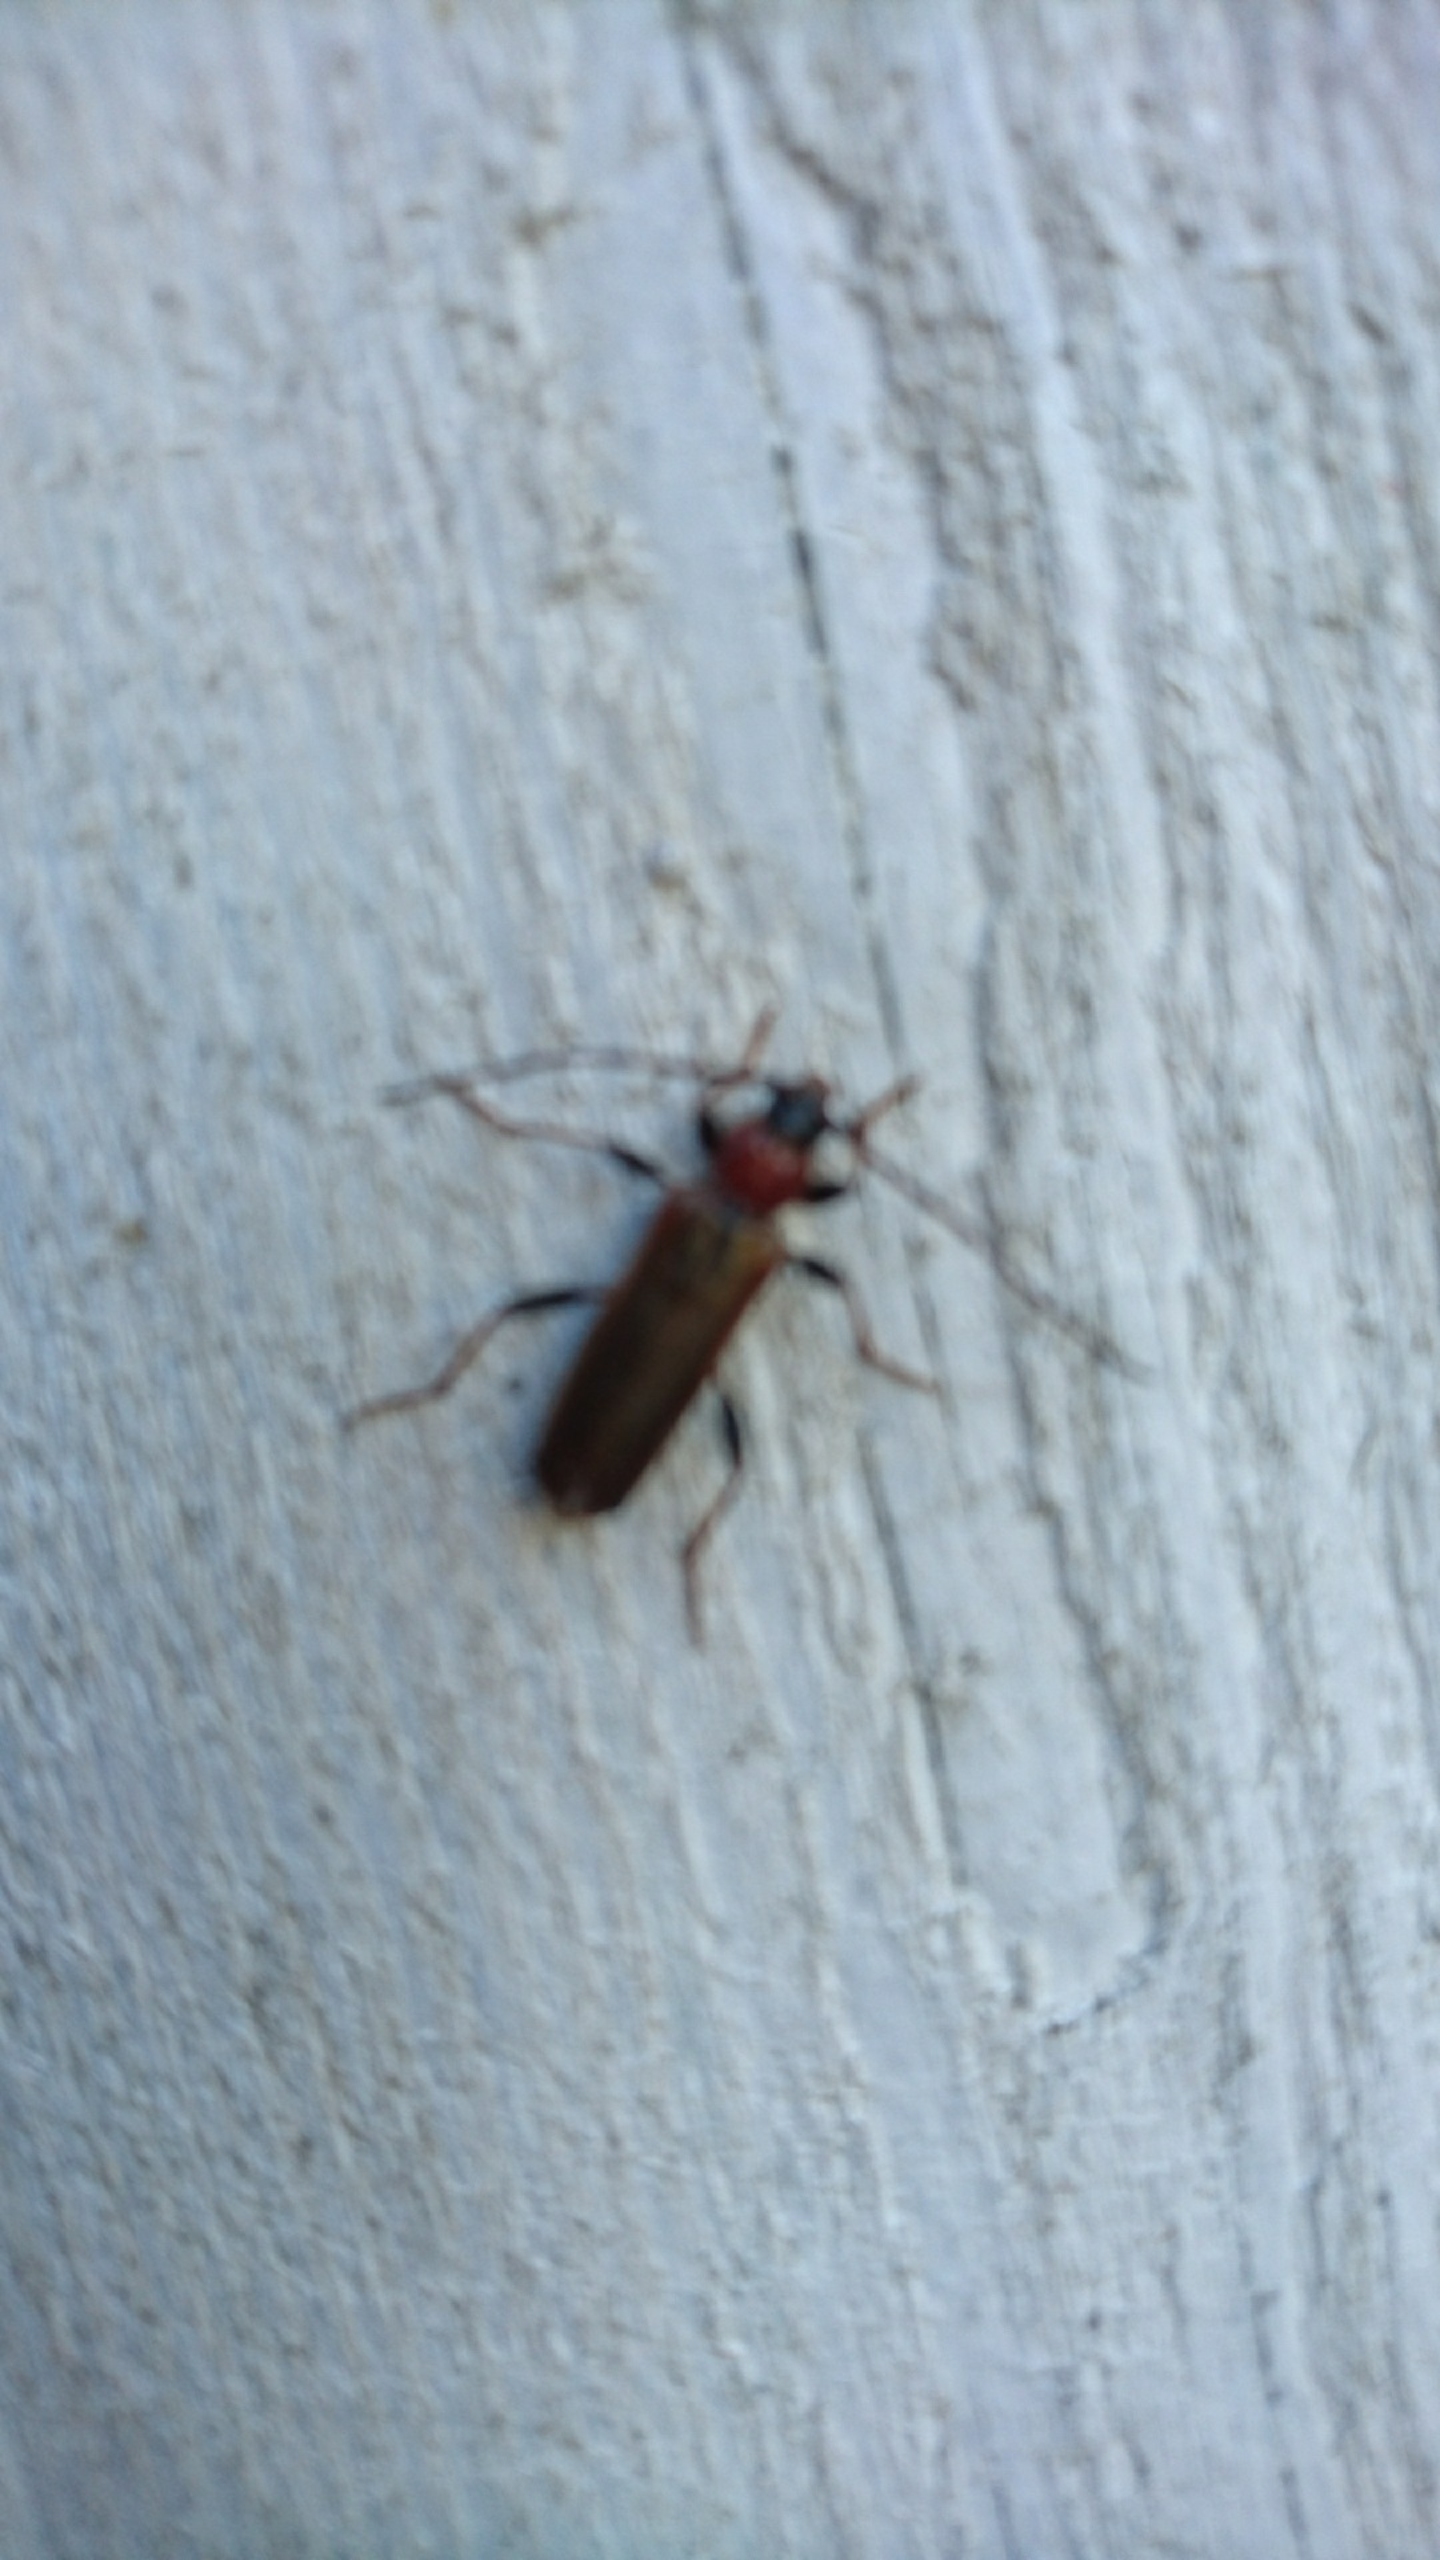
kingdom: Animalia
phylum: Arthropoda
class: Insecta
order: Coleoptera
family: Cerambycidae
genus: Phymatodes
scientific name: Phymatodes testaceus
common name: Bøgebuk
